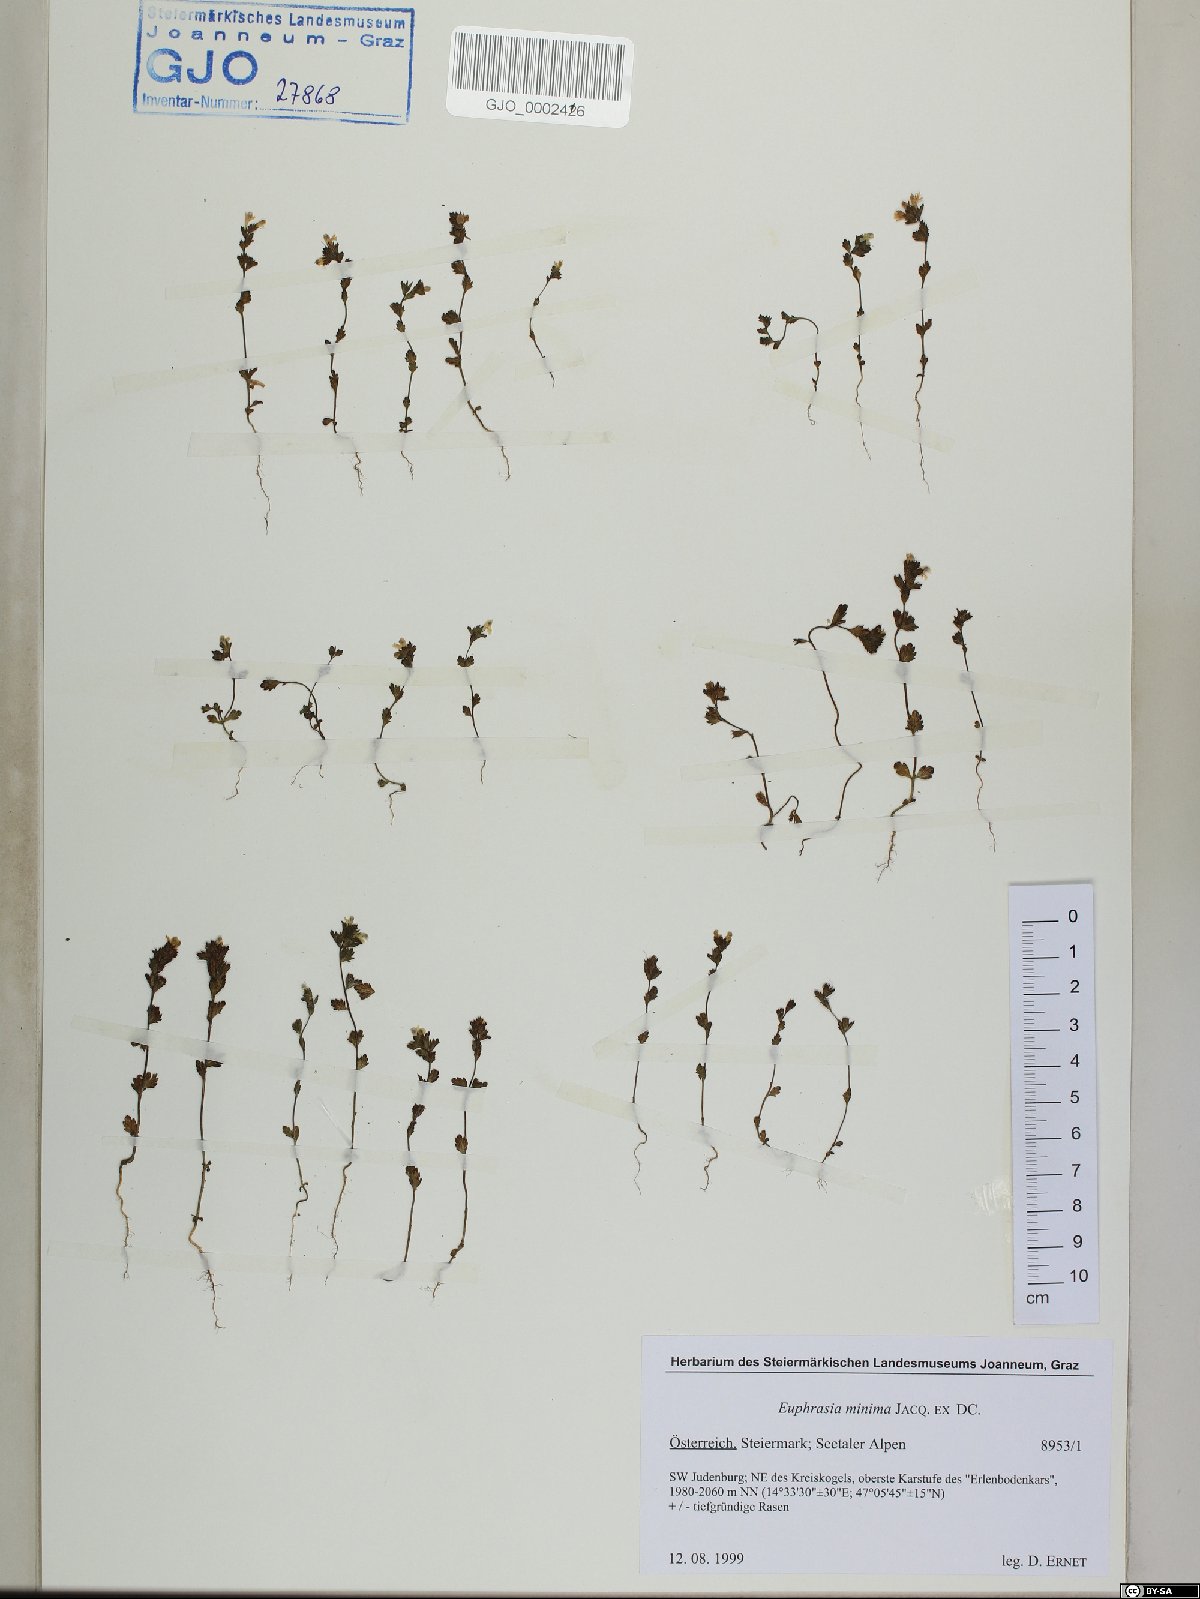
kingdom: Plantae
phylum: Tracheophyta
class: Magnoliopsida
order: Lamiales
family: Orobanchaceae
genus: Euphrasia
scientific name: Euphrasia minima
